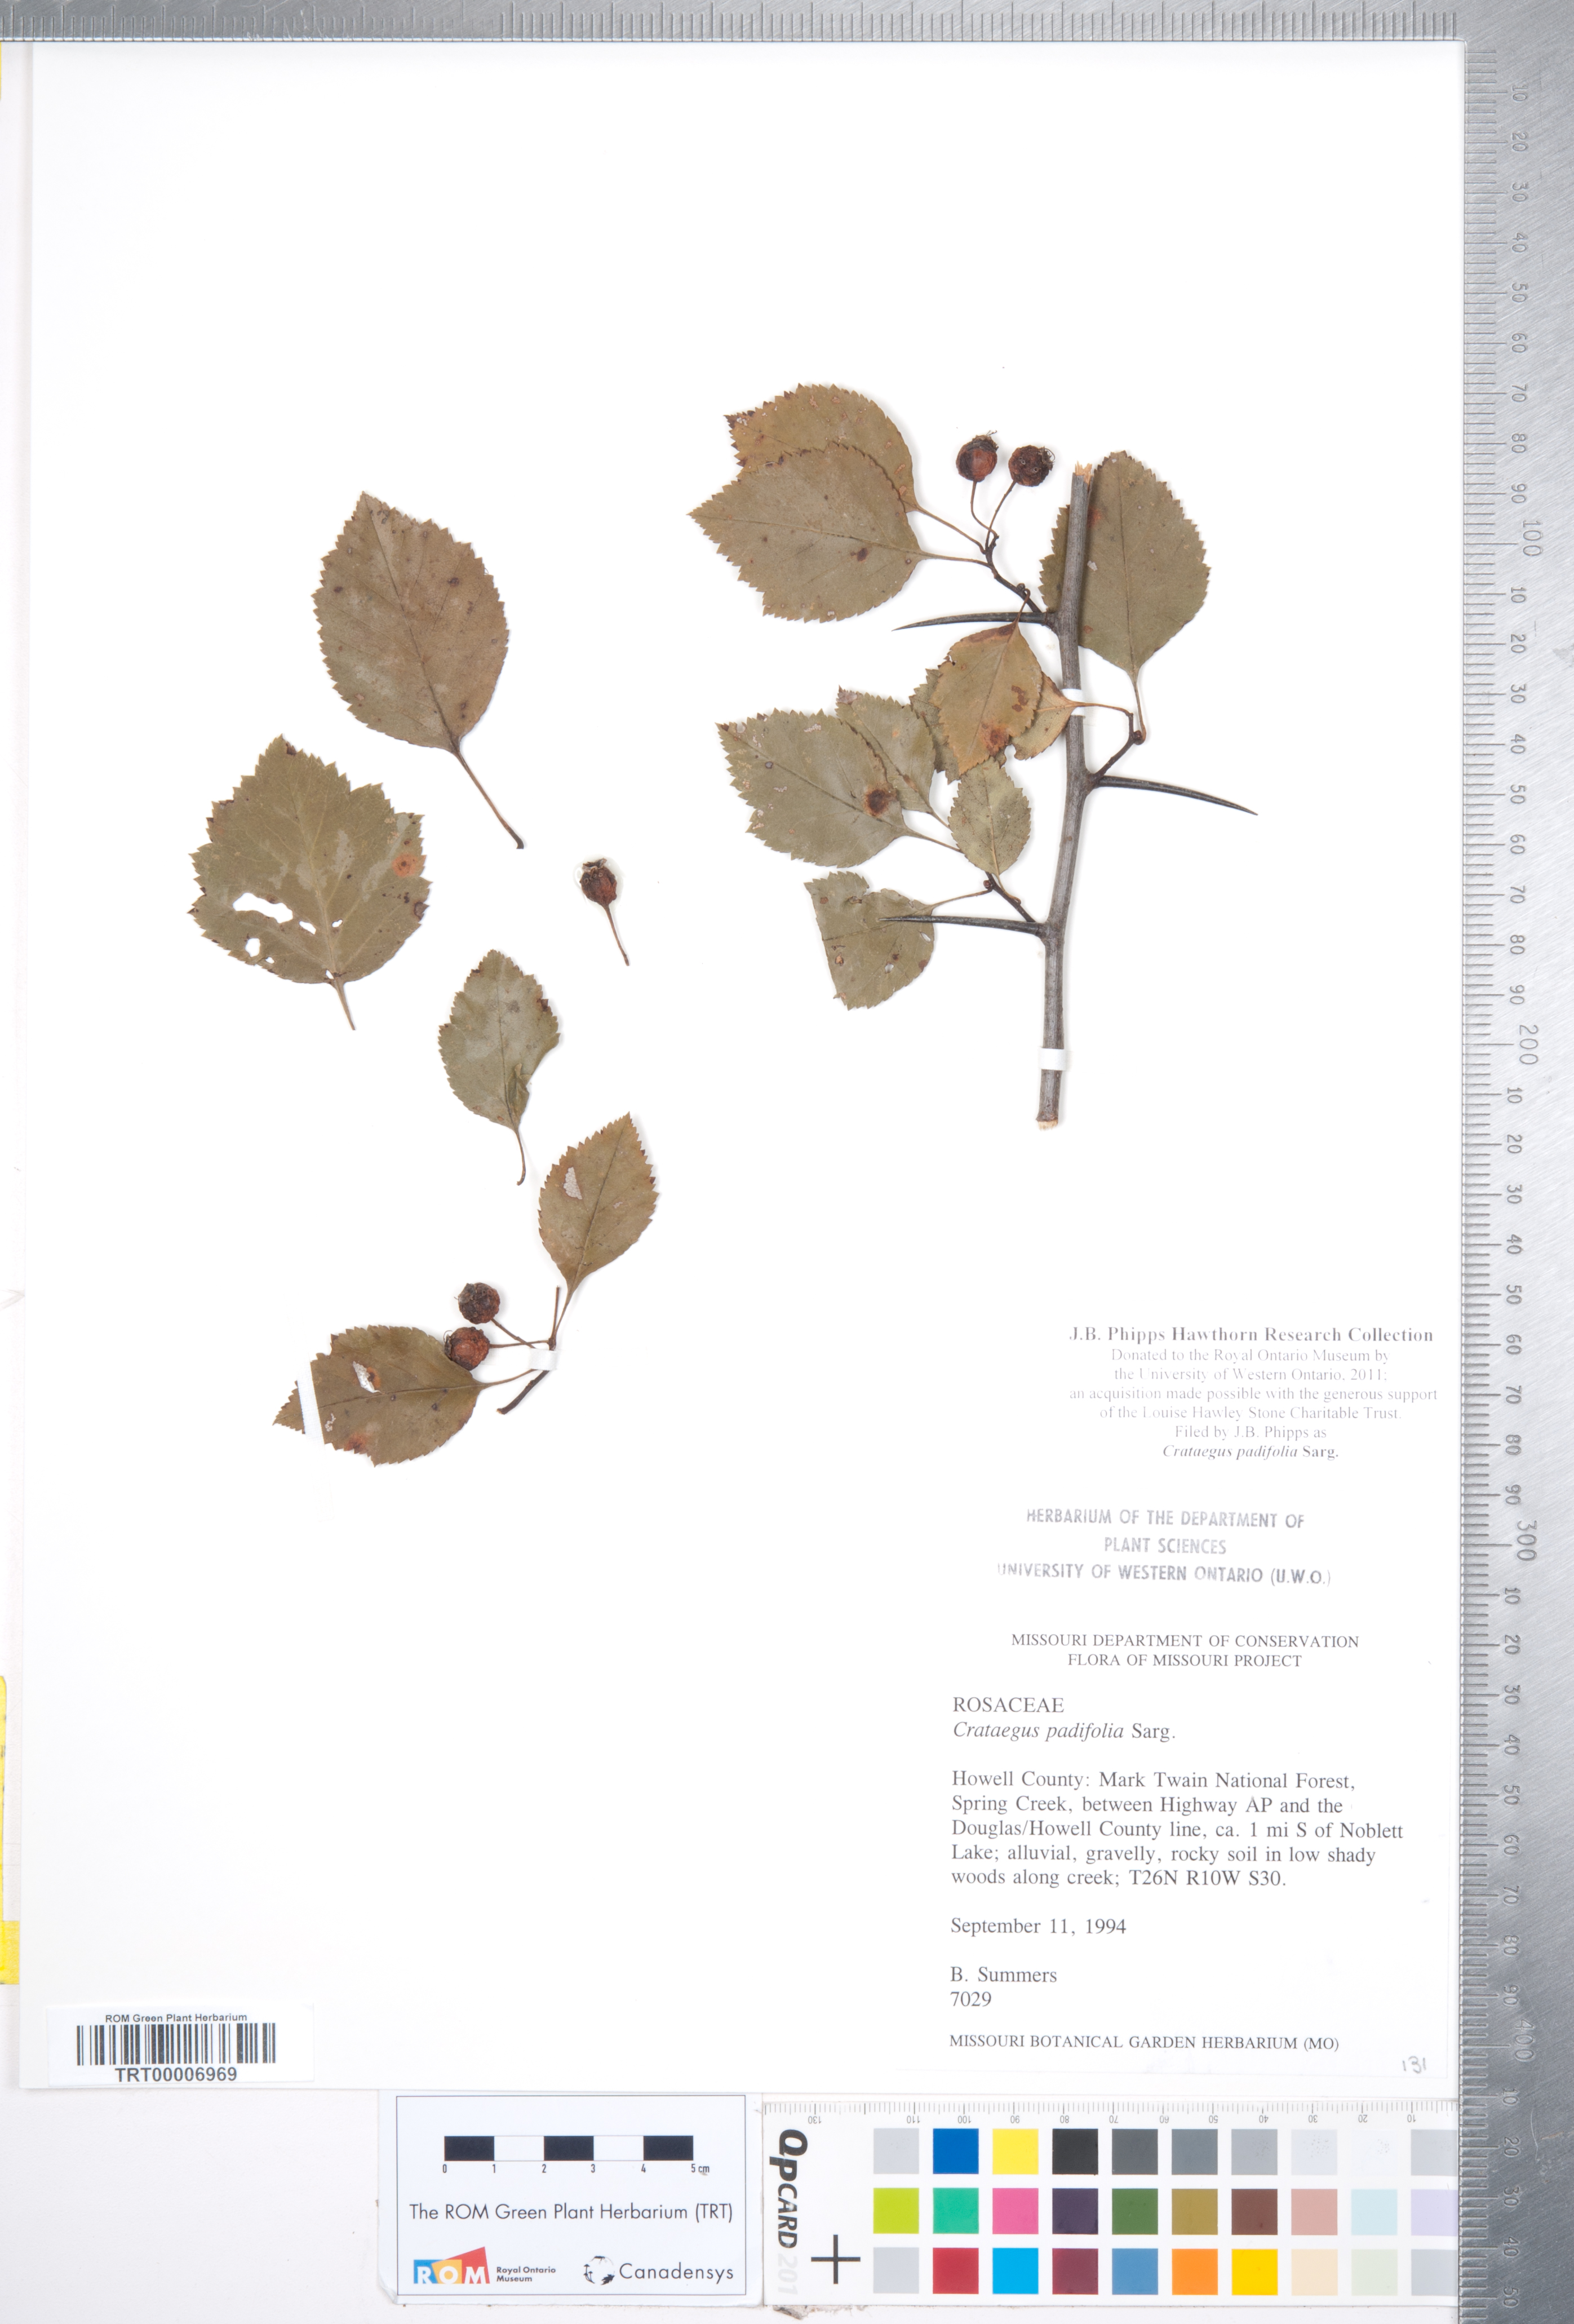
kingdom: Plantae
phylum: Tracheophyta
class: Magnoliopsida
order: Rosales
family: Rosaceae
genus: Crataegus
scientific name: Crataegus padifolia
